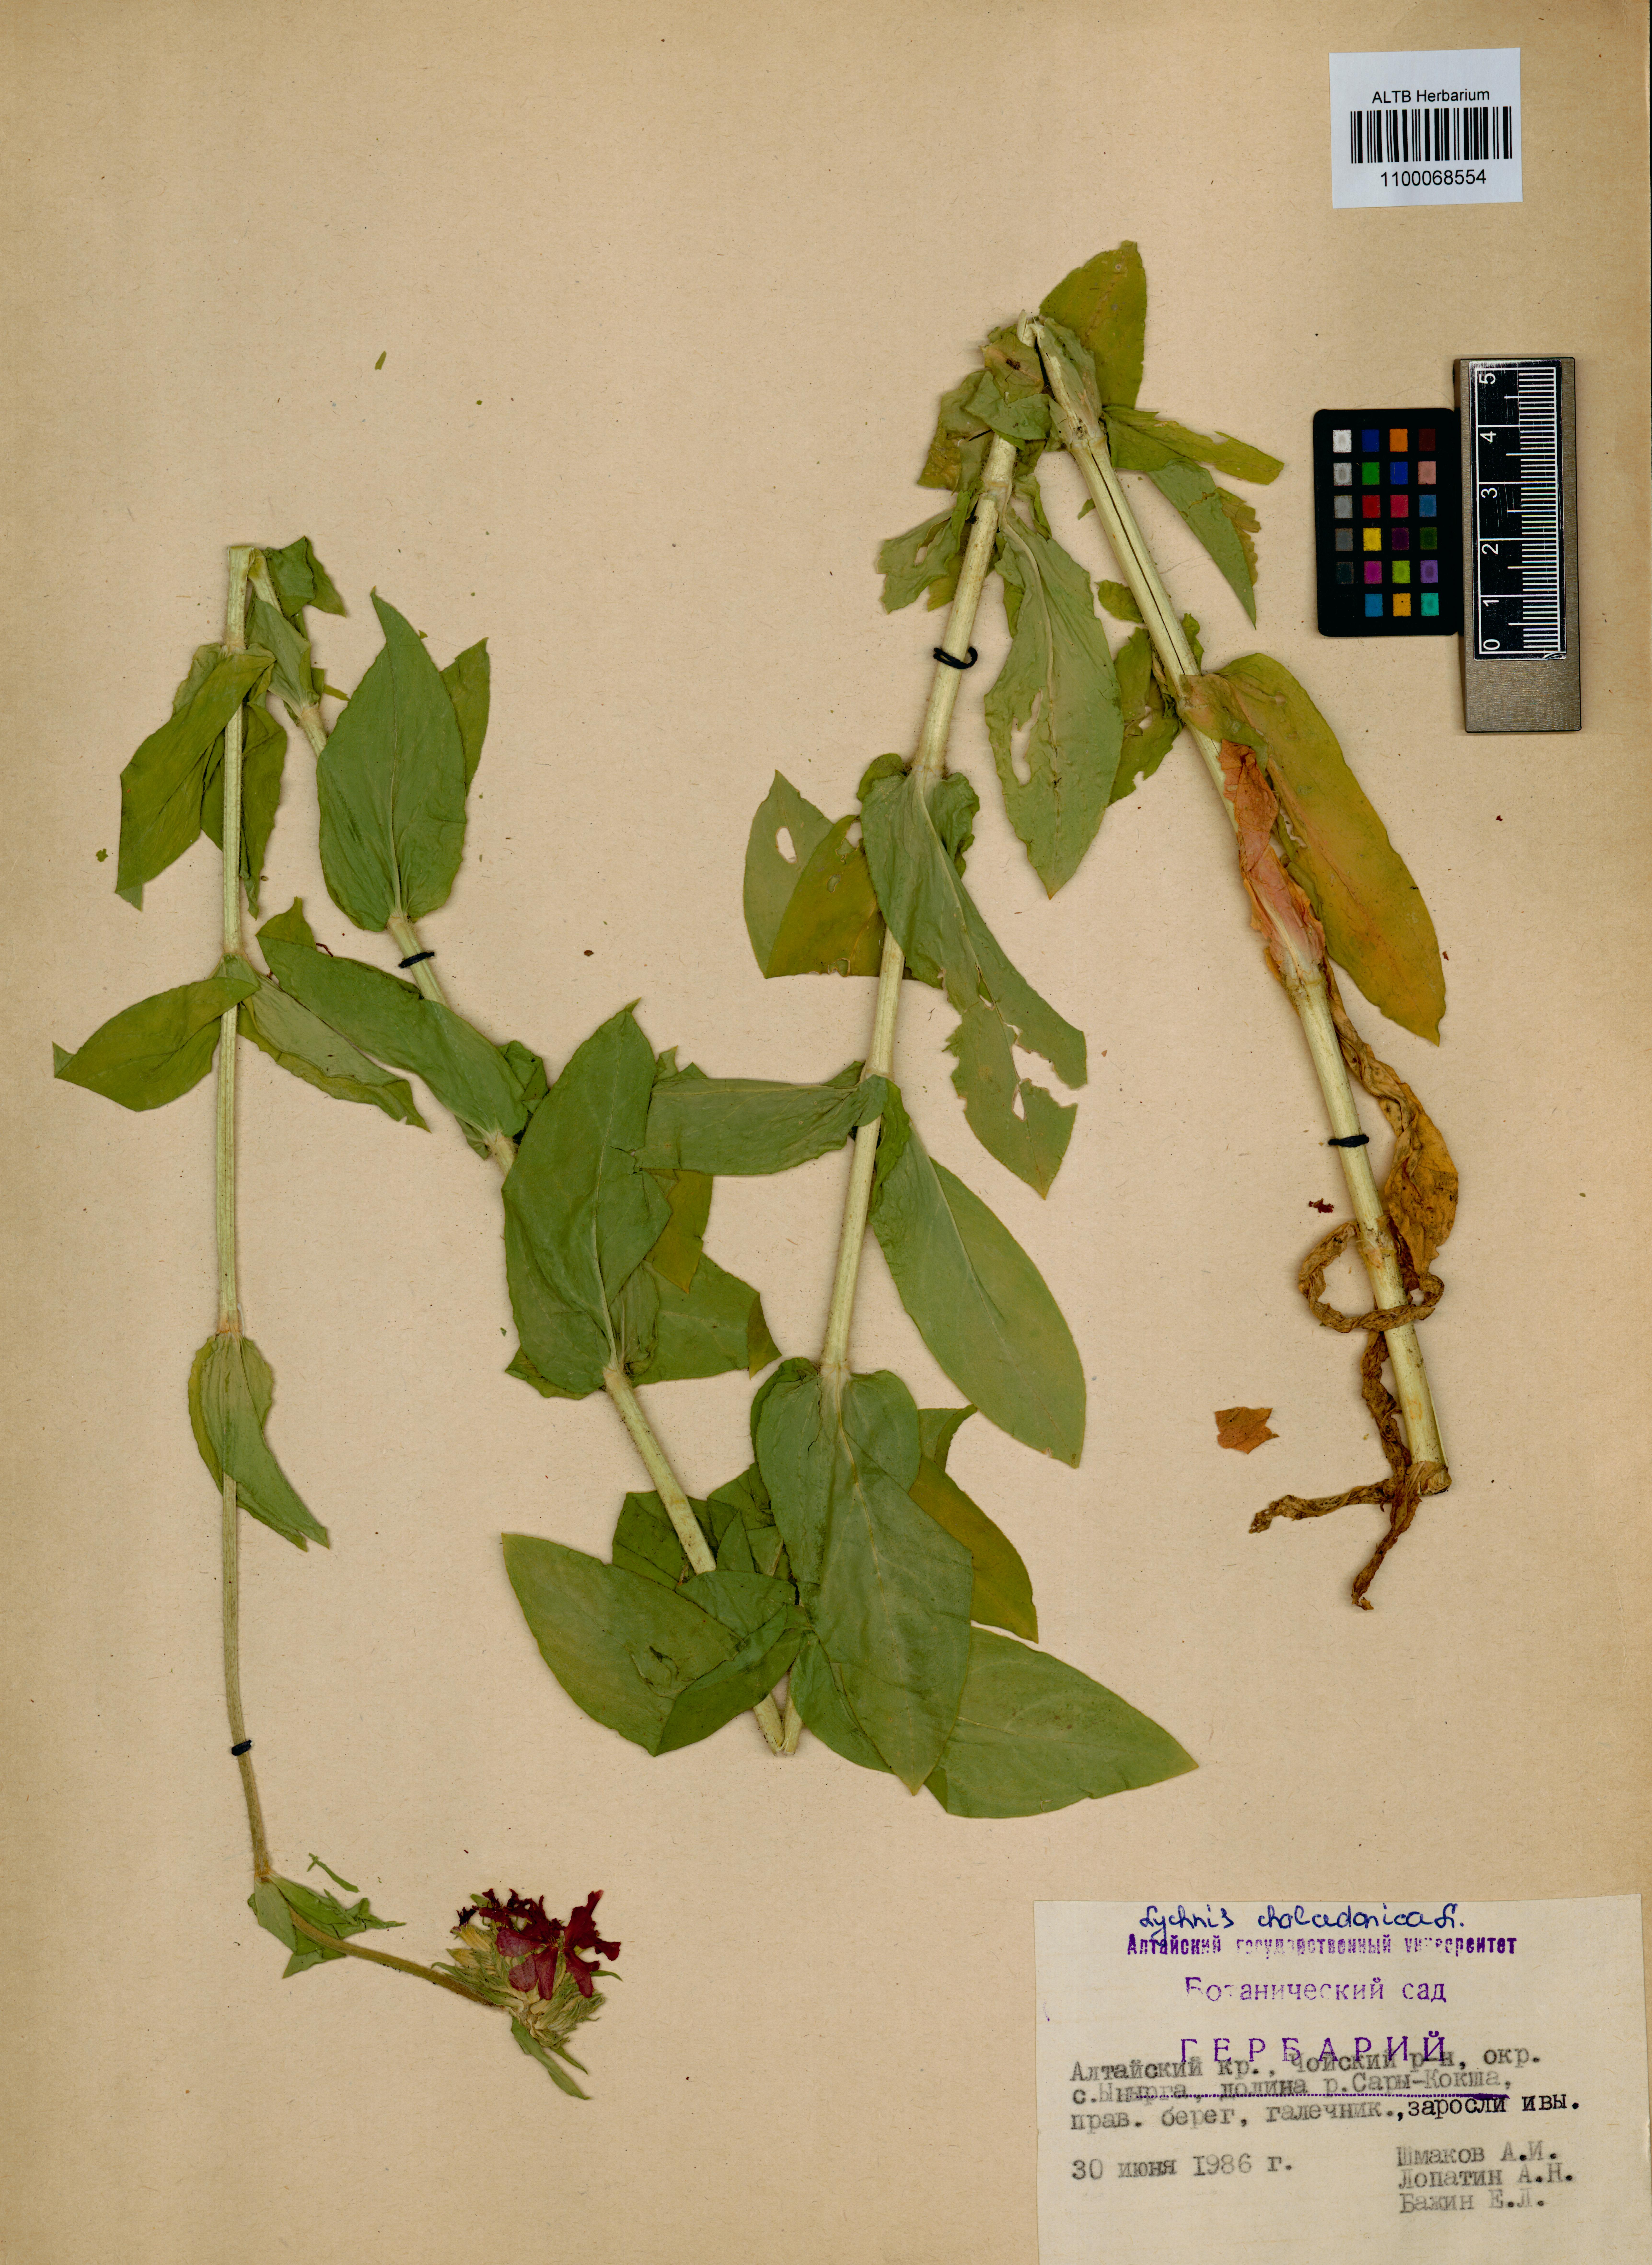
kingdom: Plantae
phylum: Tracheophyta
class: Magnoliopsida
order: Caryophyllales
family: Caryophyllaceae
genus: Silene
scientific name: Silene chalcedonica
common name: Maltese-cross
